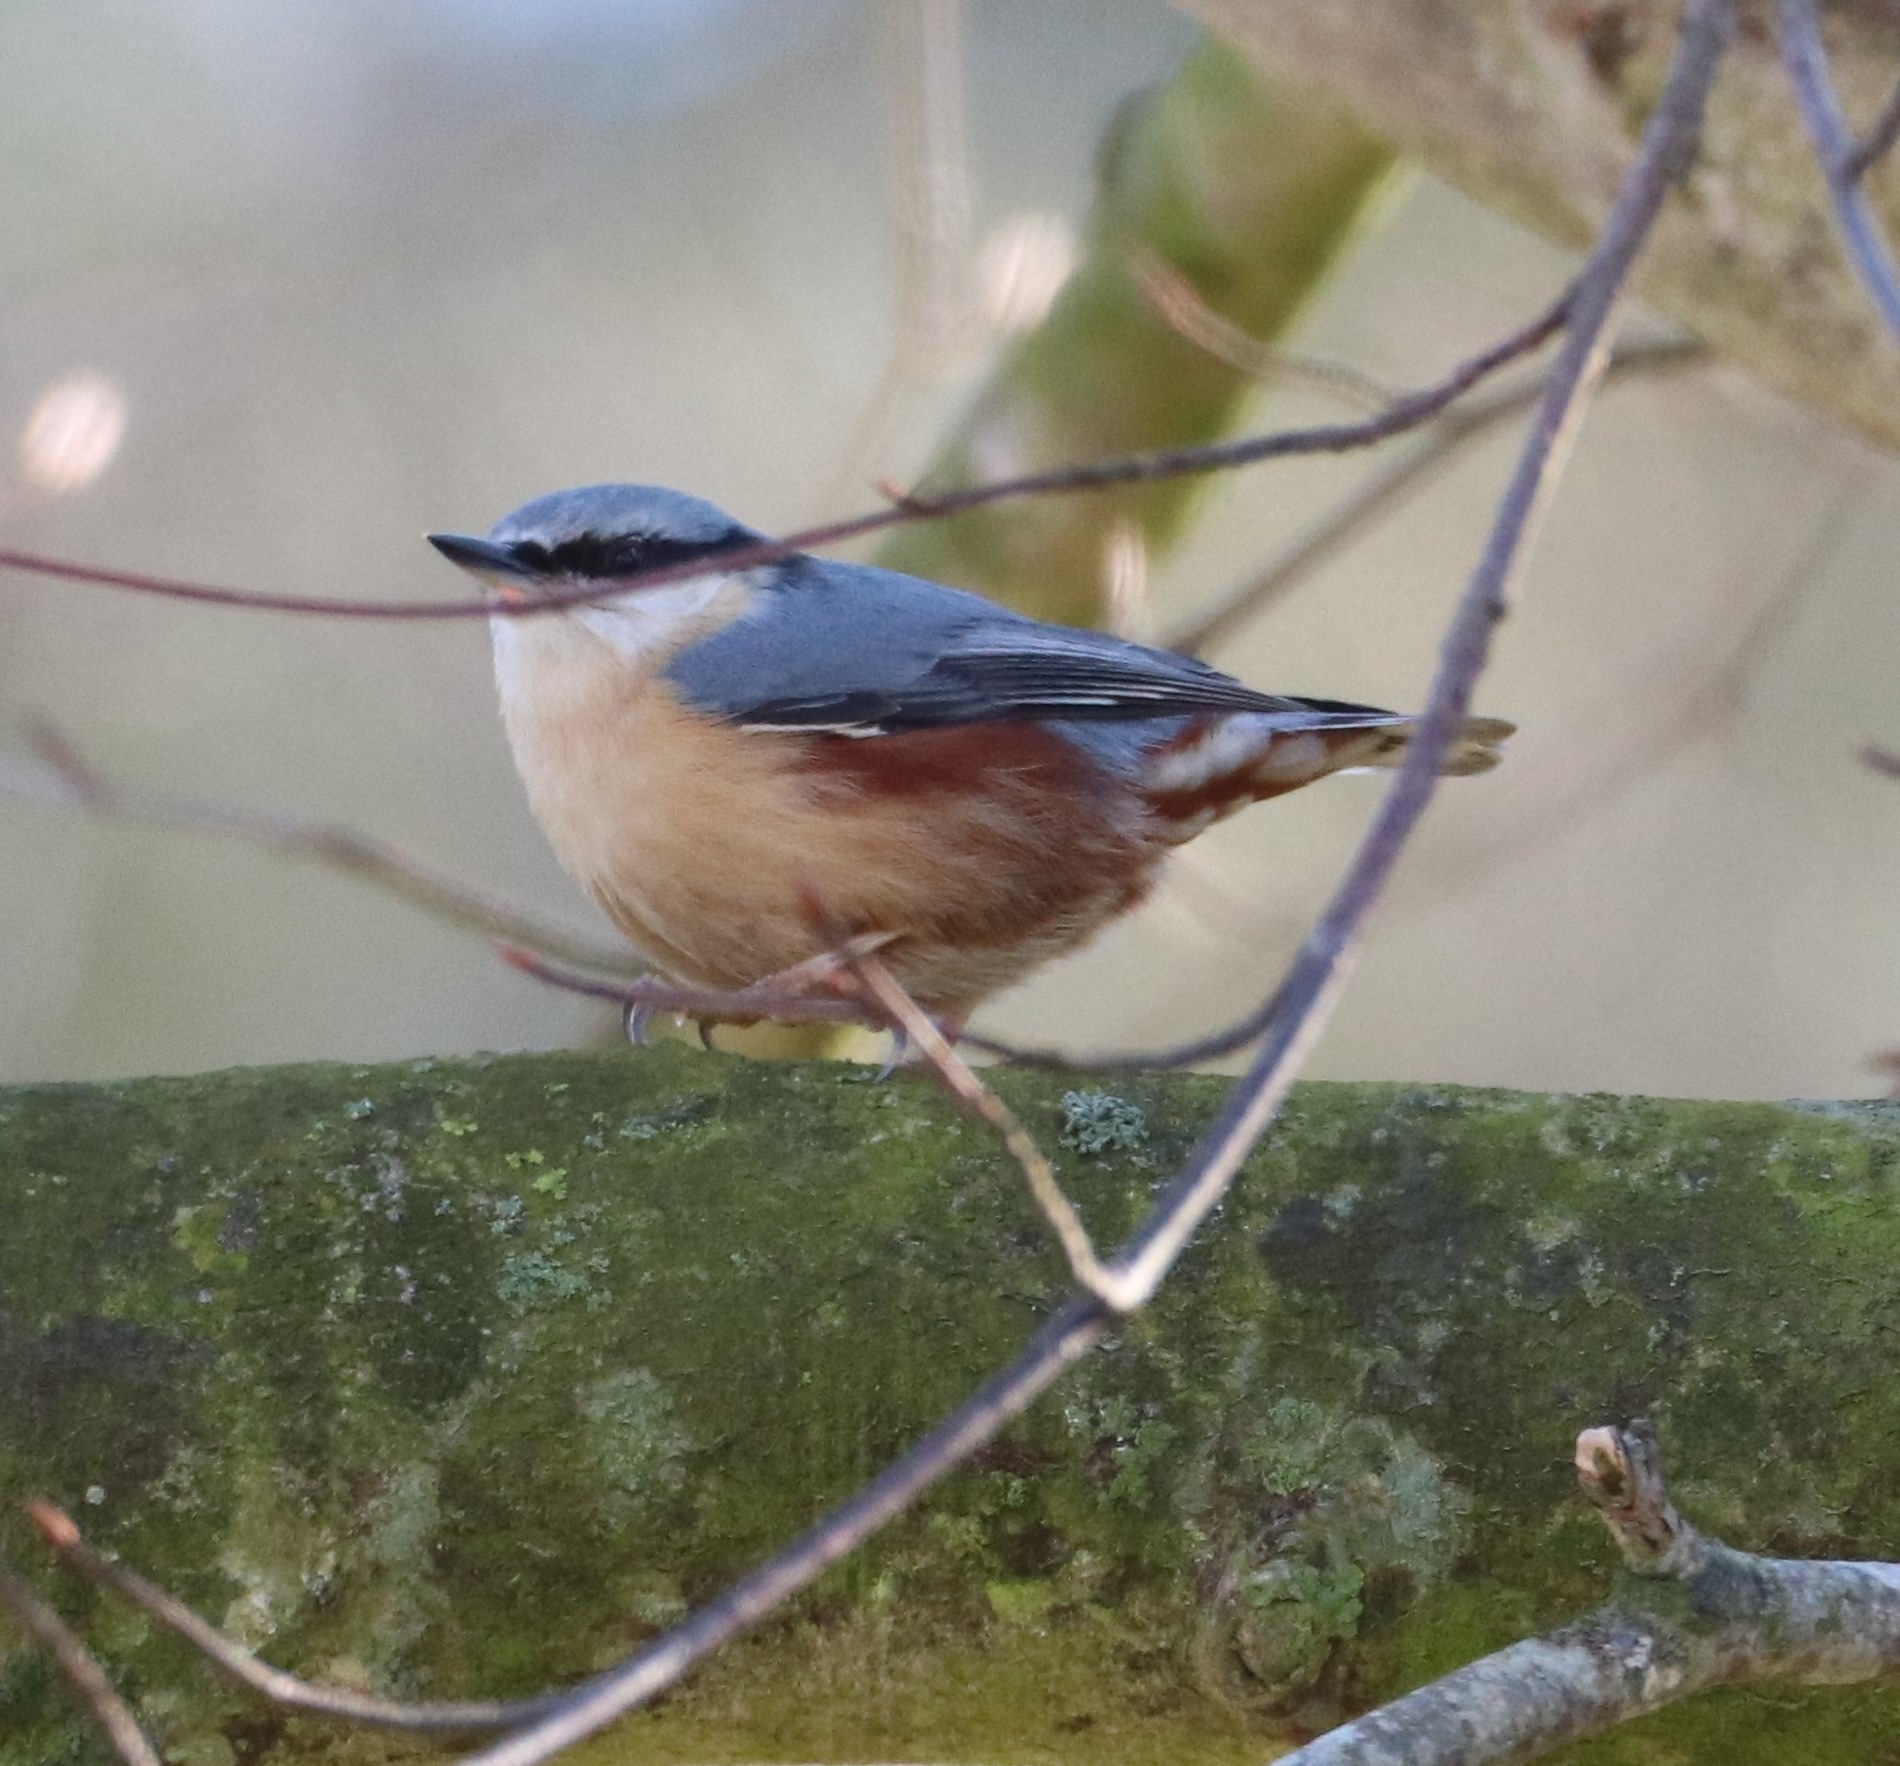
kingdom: Animalia
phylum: Chordata
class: Aves
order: Passeriformes
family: Sittidae
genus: Sitta
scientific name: Sitta europaea
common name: Spætmejse
